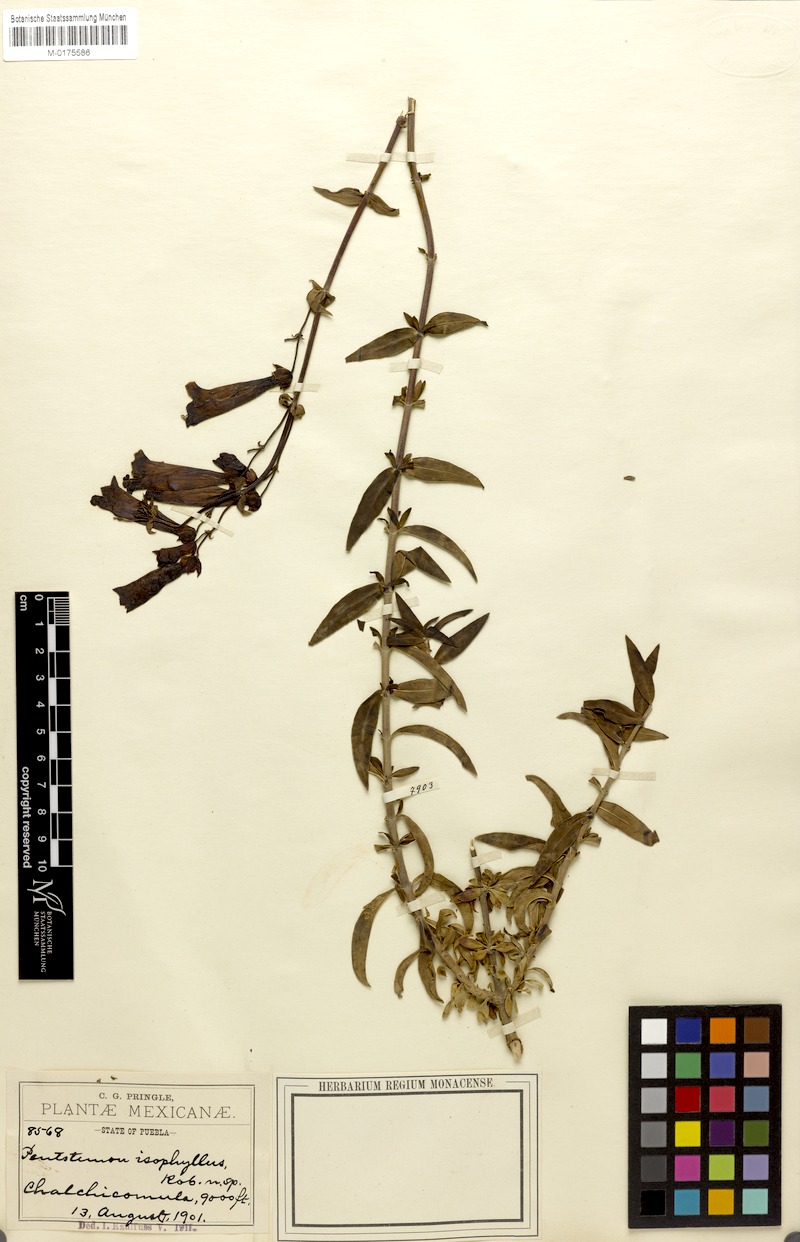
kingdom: Plantae
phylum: Tracheophyta
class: Magnoliopsida
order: Lamiales
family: Plantaginaceae
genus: Penstemon
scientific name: Penstemon isophyllus
